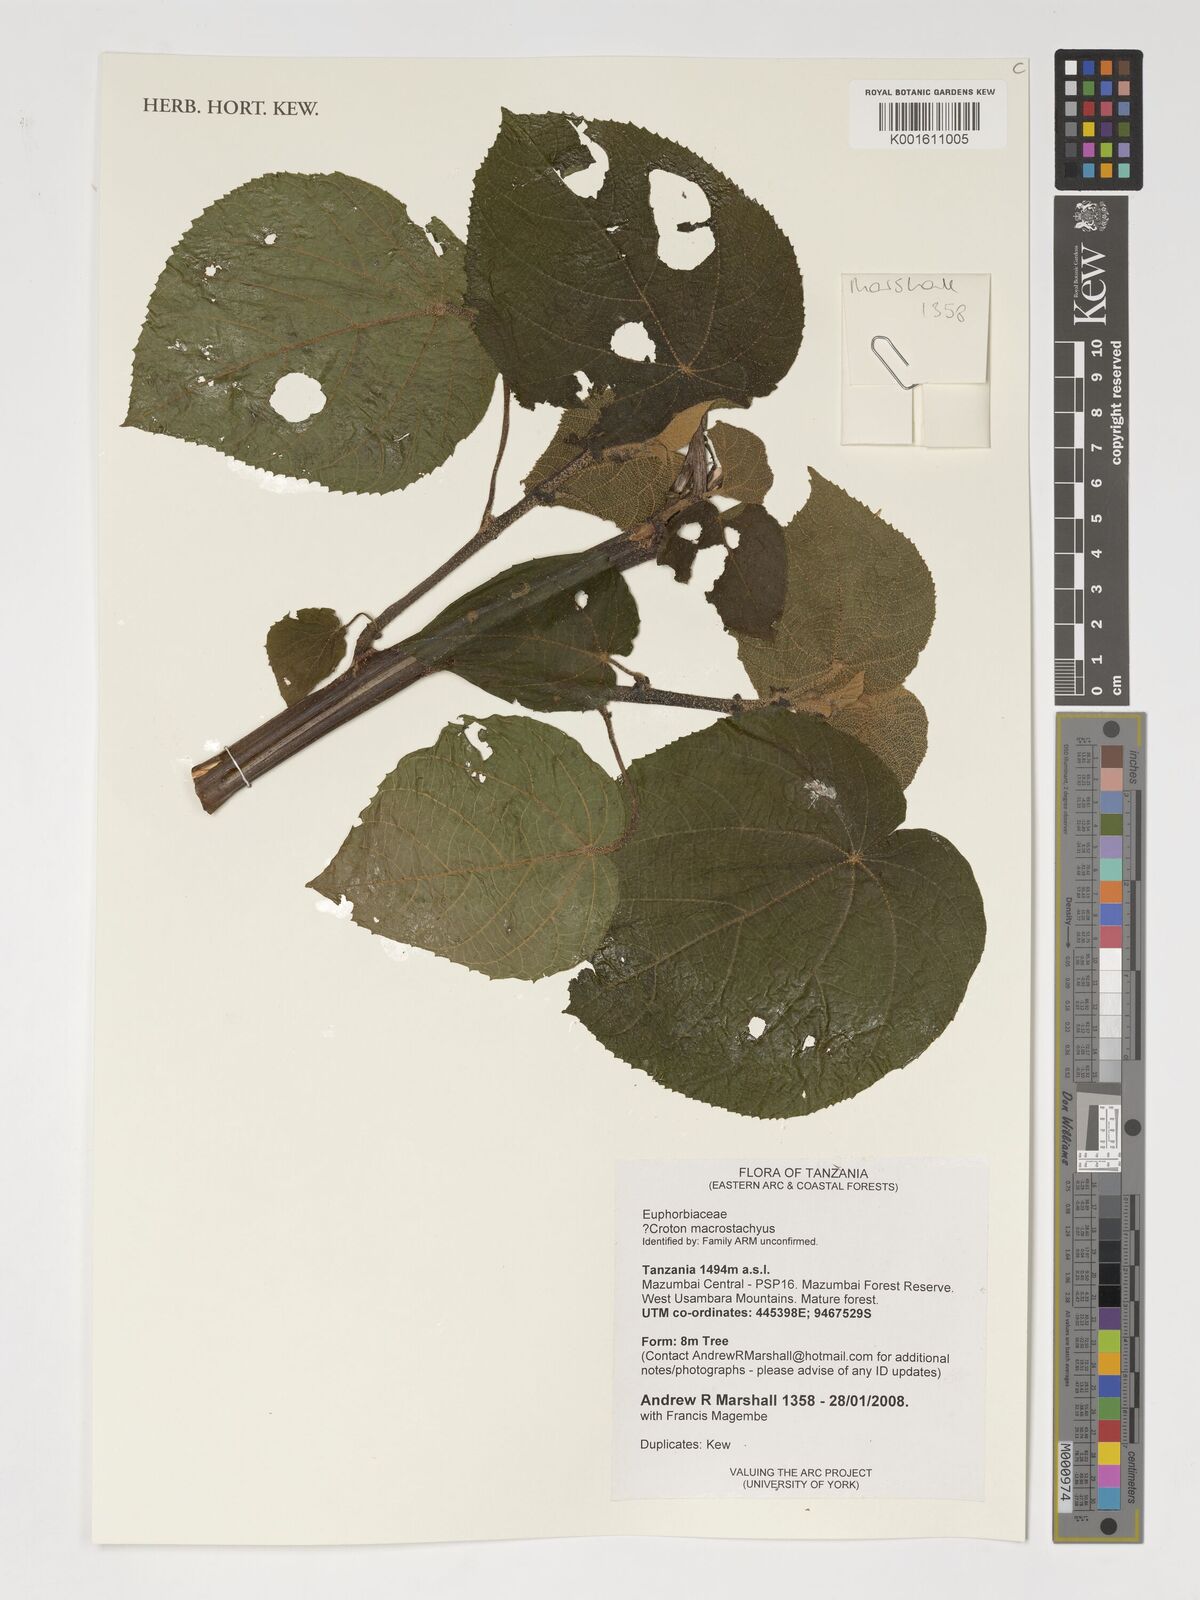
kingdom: Plantae
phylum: Tracheophyta
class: Magnoliopsida
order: Malpighiales
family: Euphorbiaceae
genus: Croton
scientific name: Croton macrostachyus
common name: Mutundu
